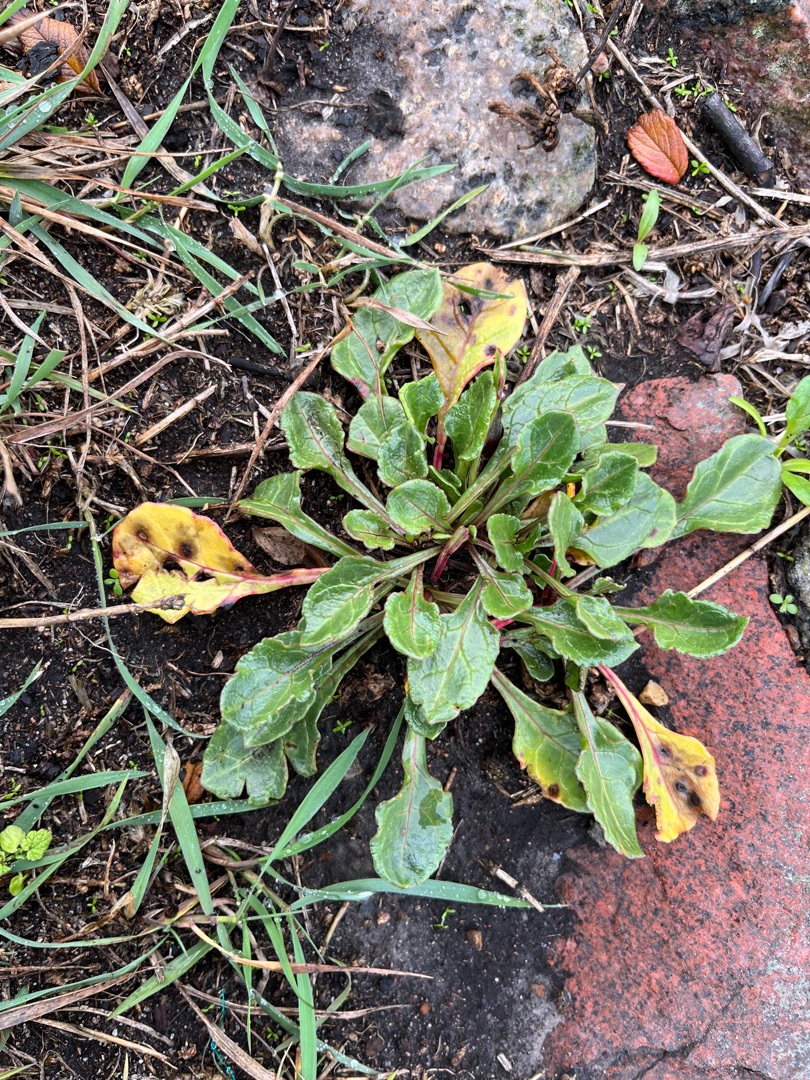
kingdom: Plantae
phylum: Tracheophyta
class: Magnoliopsida
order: Caryophyllales
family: Amaranthaceae
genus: Beta
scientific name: Beta maritima
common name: Strand-bede
